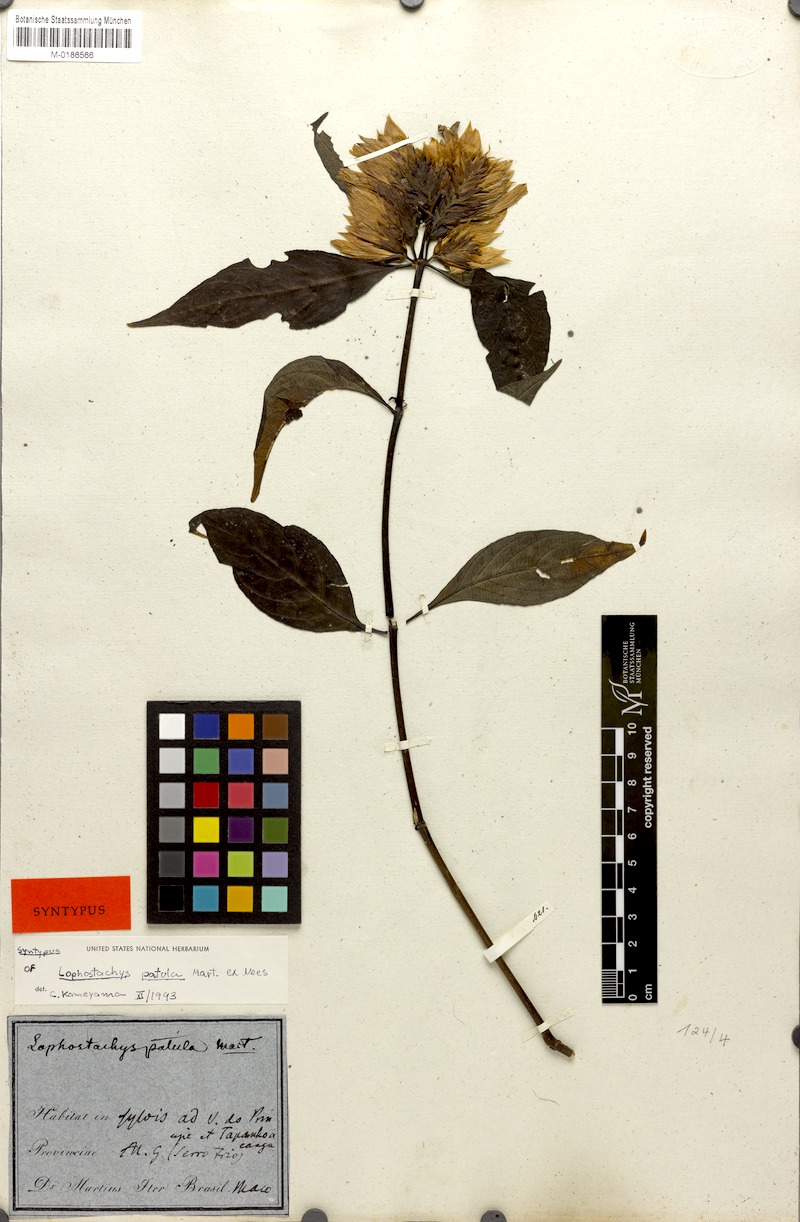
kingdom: Plantae
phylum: Tracheophyta
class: Magnoliopsida
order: Lamiales
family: Acanthaceae
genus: Lepidagathis
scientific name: Lepidagathis laxifolia
